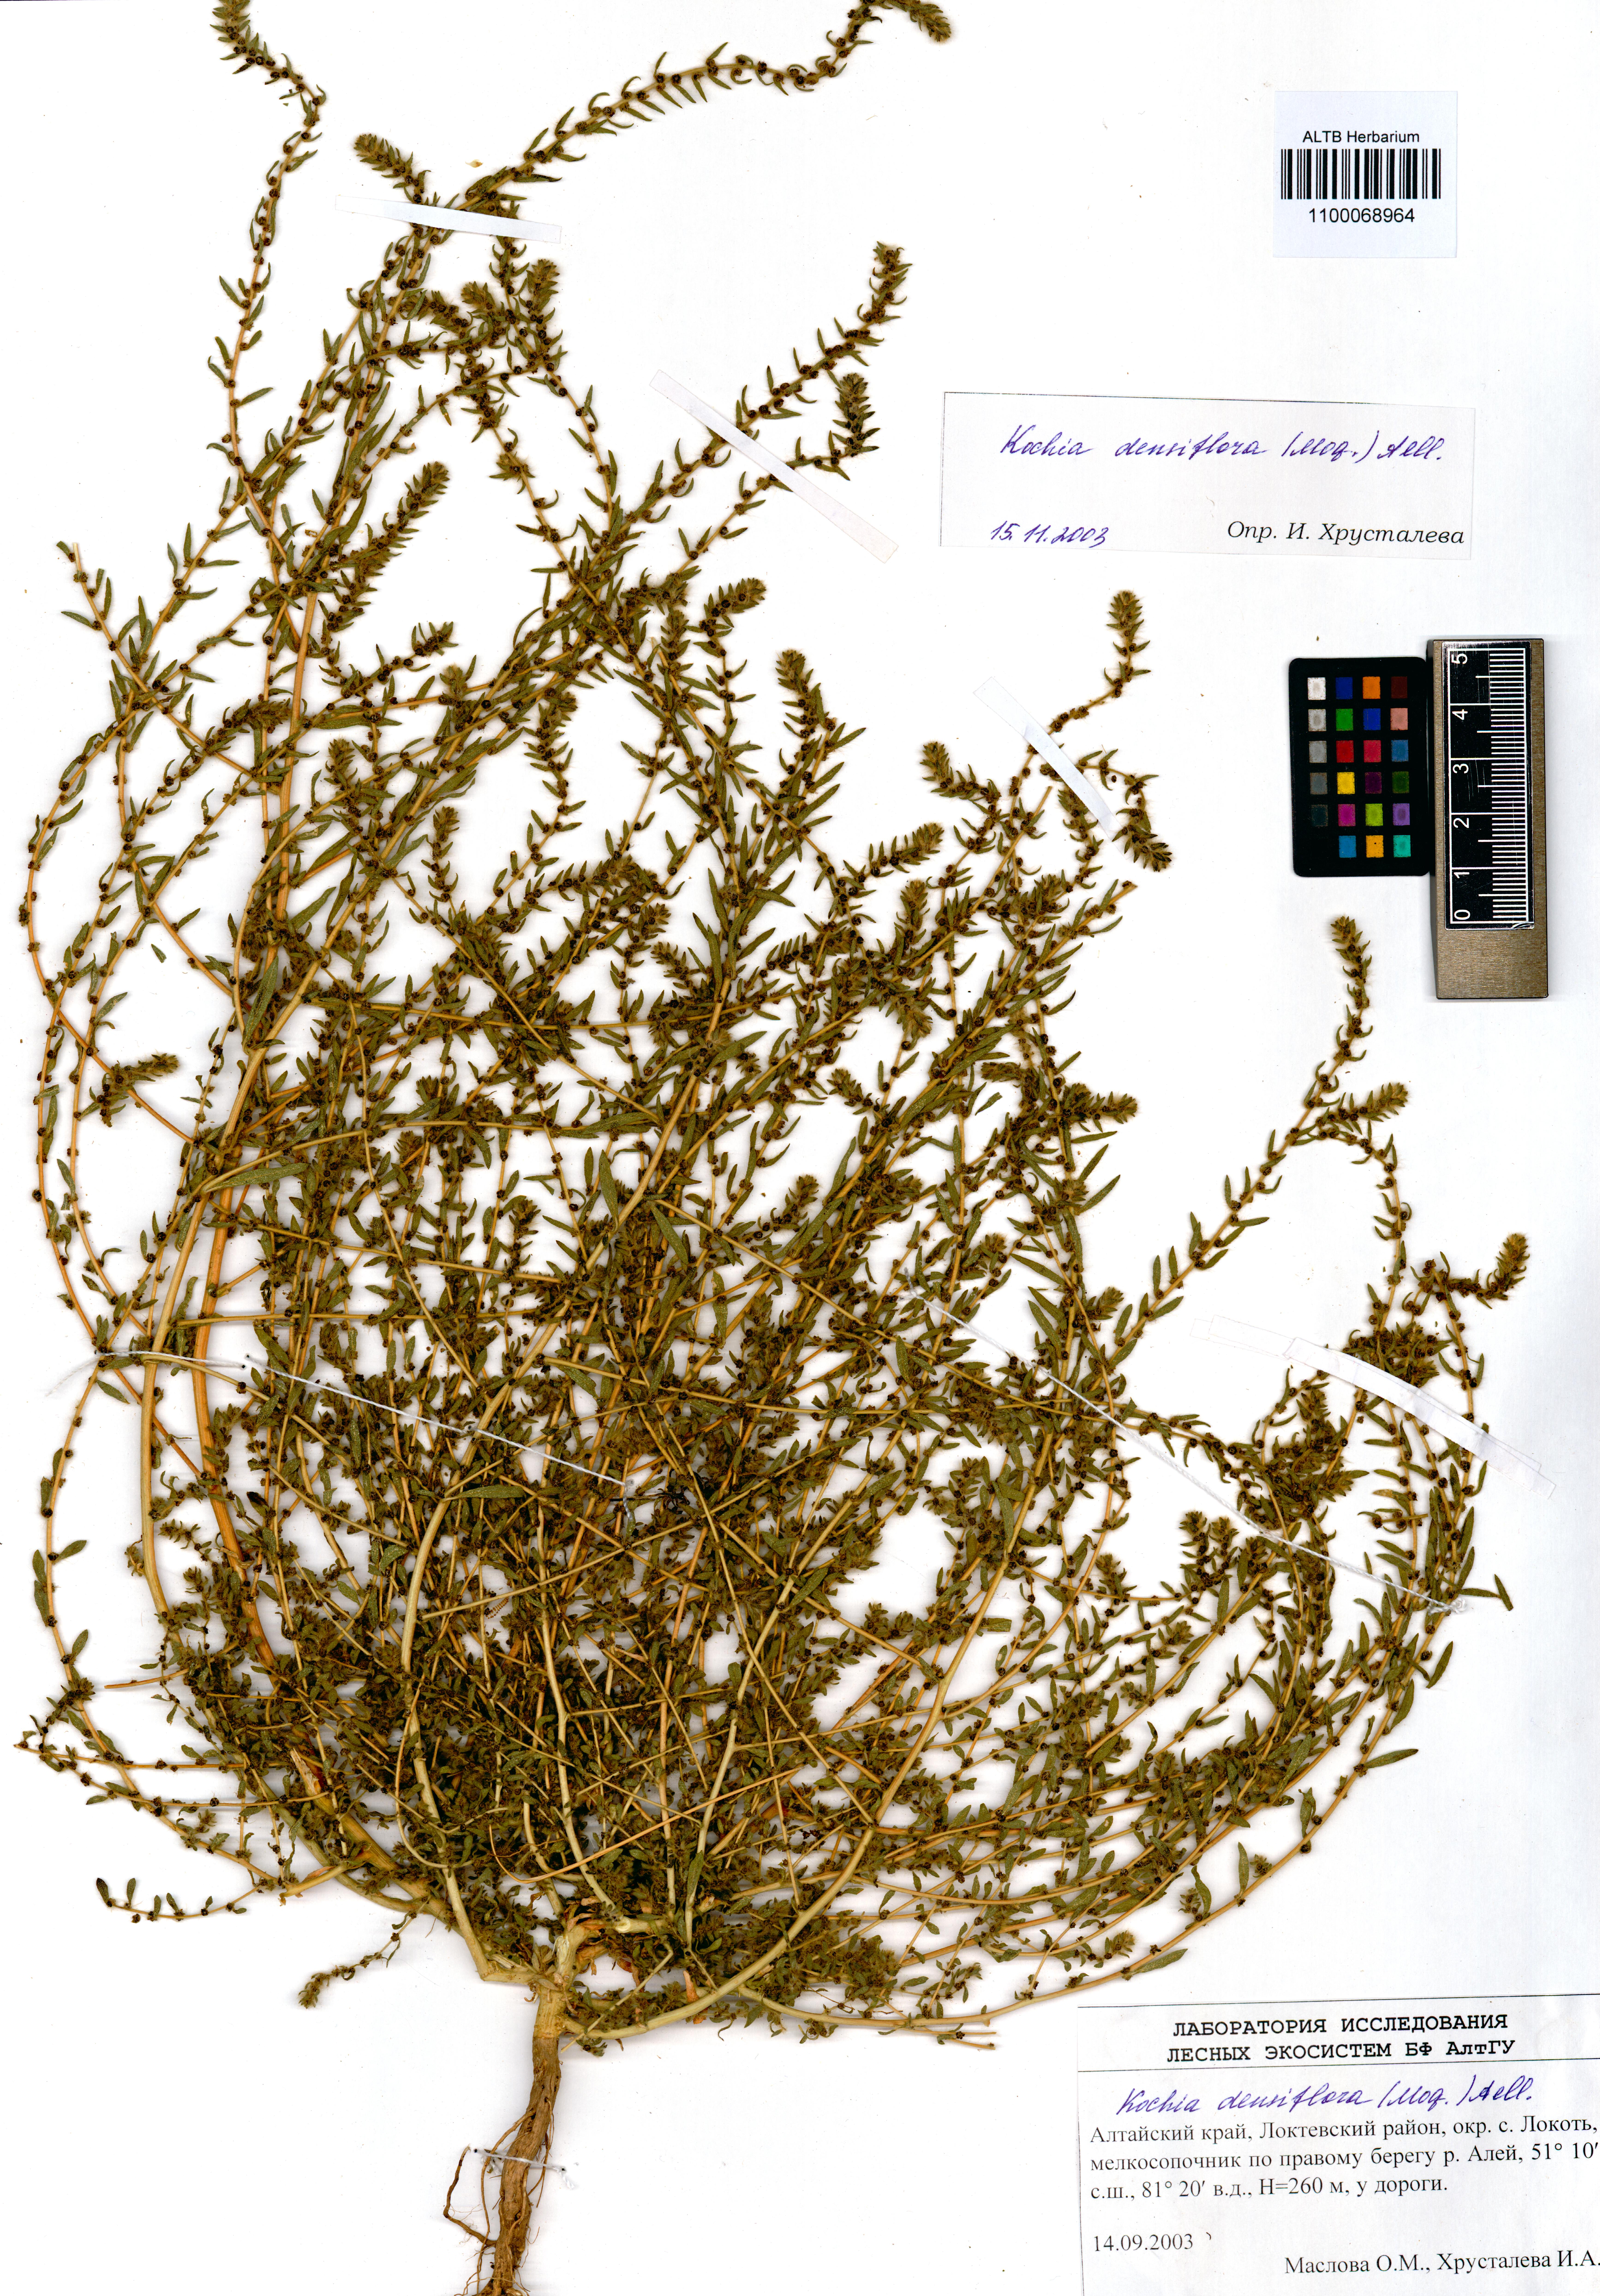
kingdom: Plantae
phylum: Tracheophyta
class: Magnoliopsida
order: Caryophyllales
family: Amaranthaceae
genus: Bassia
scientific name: Bassia scoparia
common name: Belvedere
